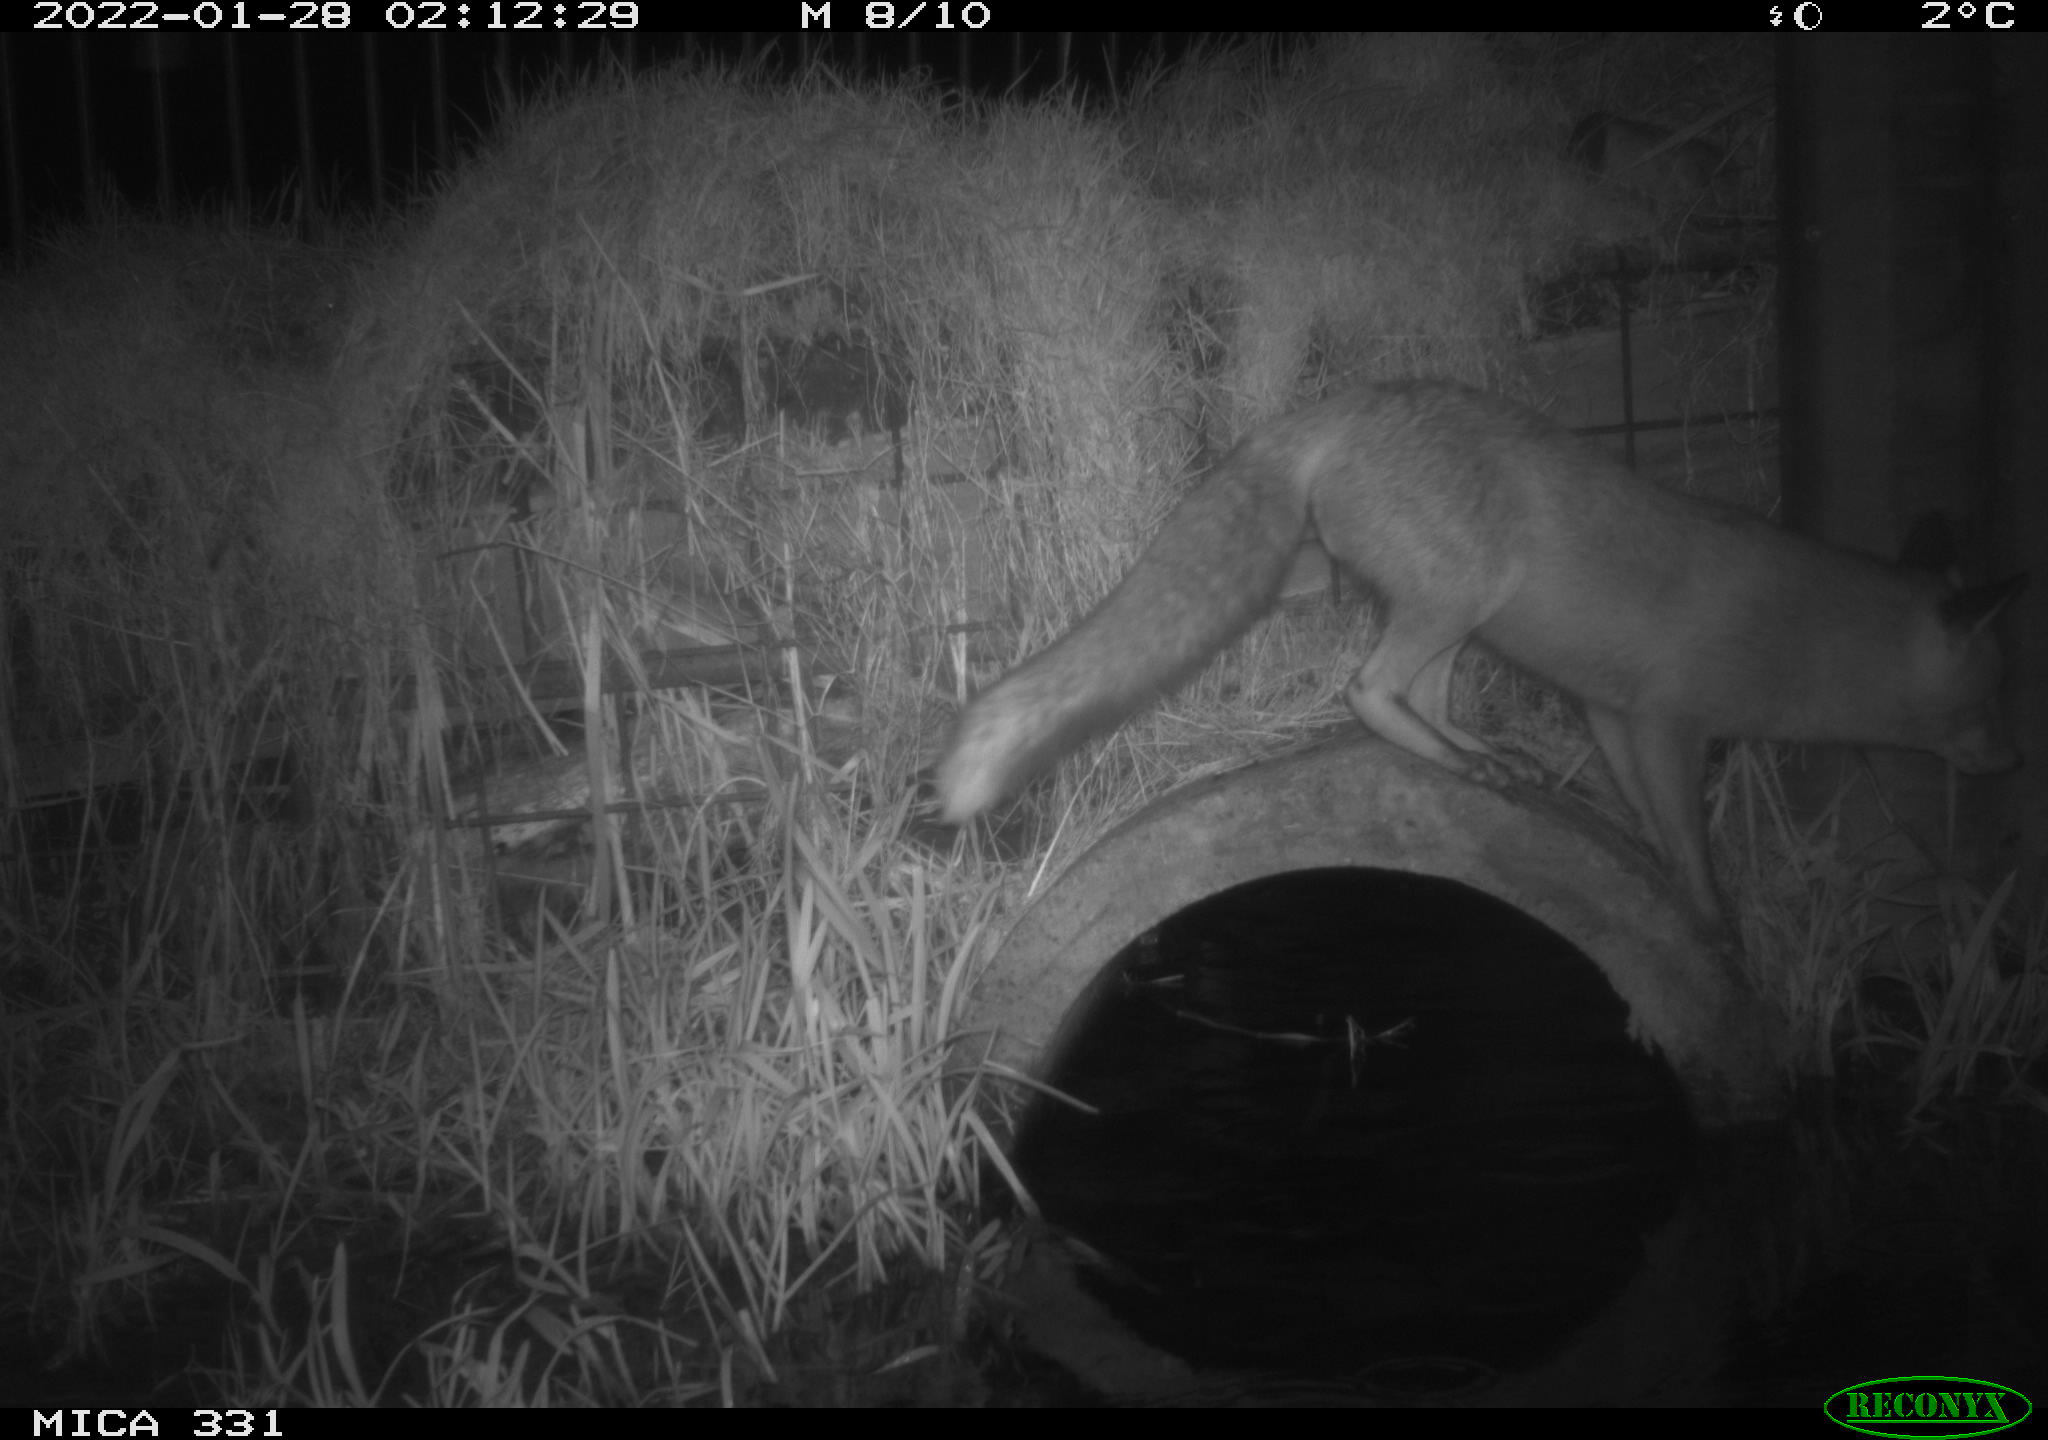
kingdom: Animalia
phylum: Chordata
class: Mammalia
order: Carnivora
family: Canidae
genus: Vulpes
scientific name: Vulpes vulpes
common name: Red fox
